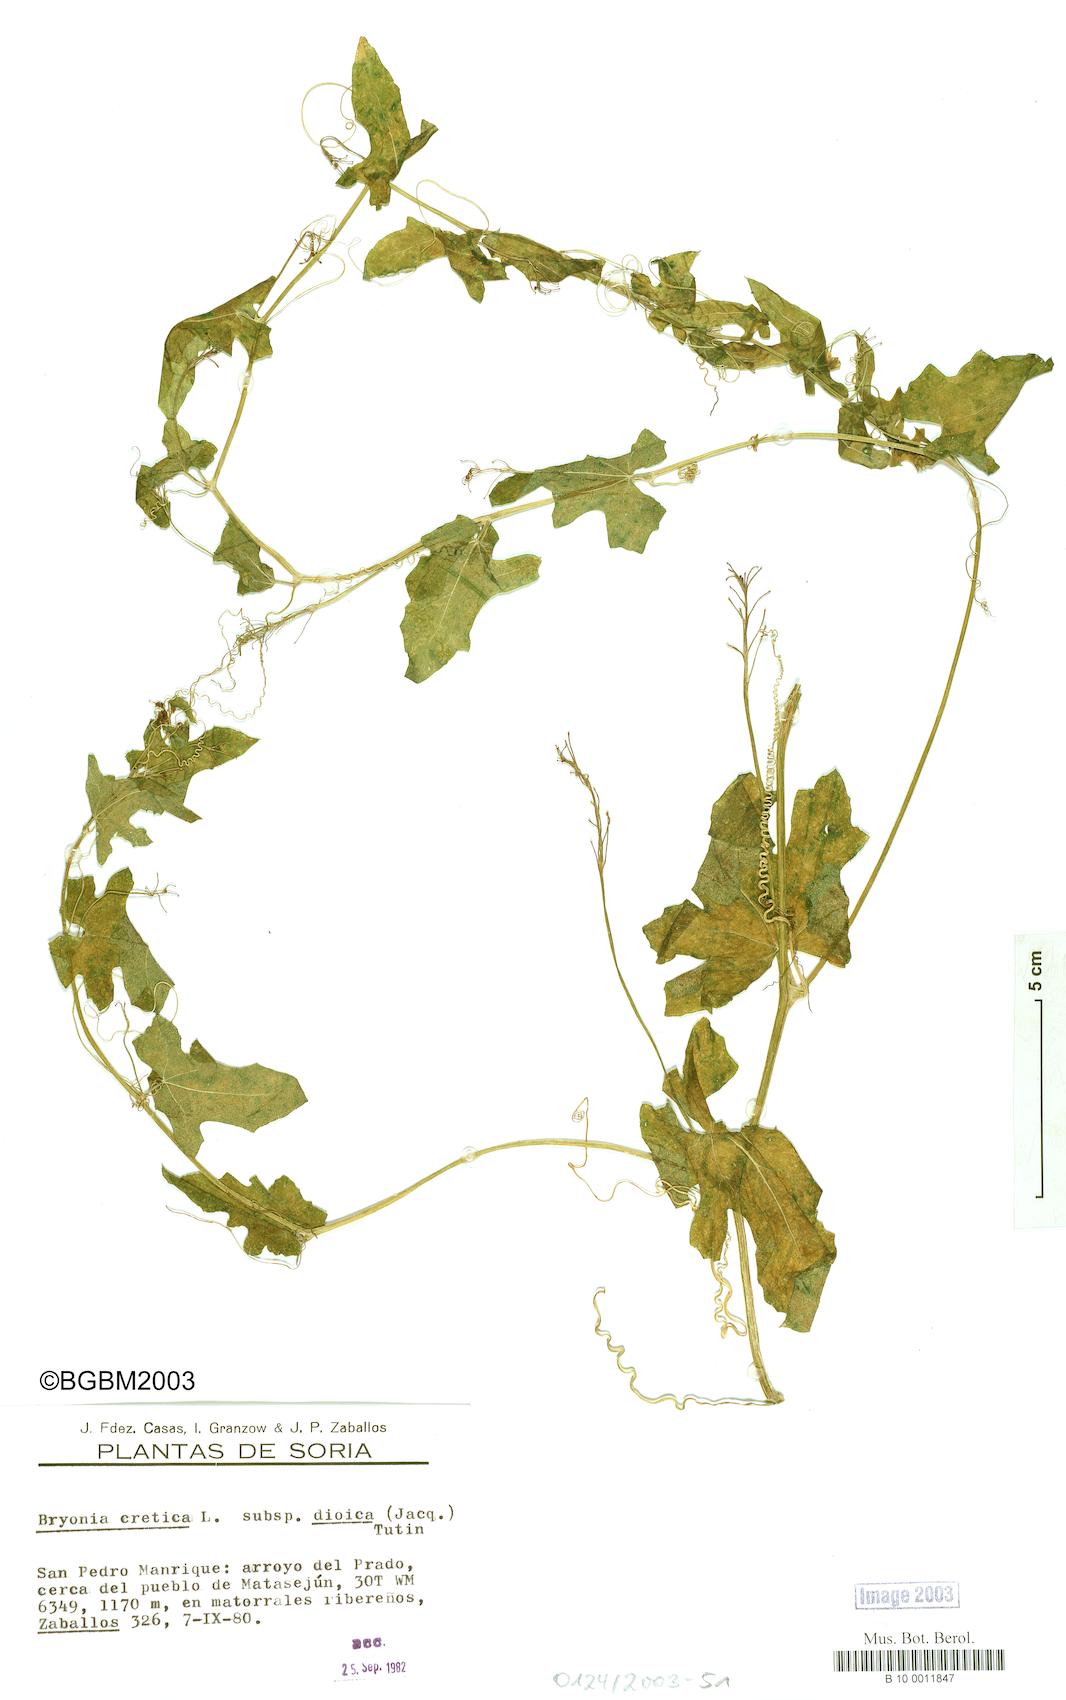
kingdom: Plantae
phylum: Tracheophyta
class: Magnoliopsida
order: Cucurbitales
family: Cucurbitaceae
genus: Bryonia
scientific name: Bryonia dioica
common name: White bryony
